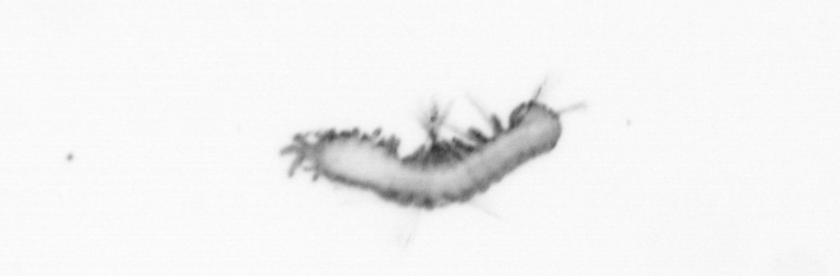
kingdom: Animalia
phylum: Annelida
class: Polychaeta
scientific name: Polychaeta
